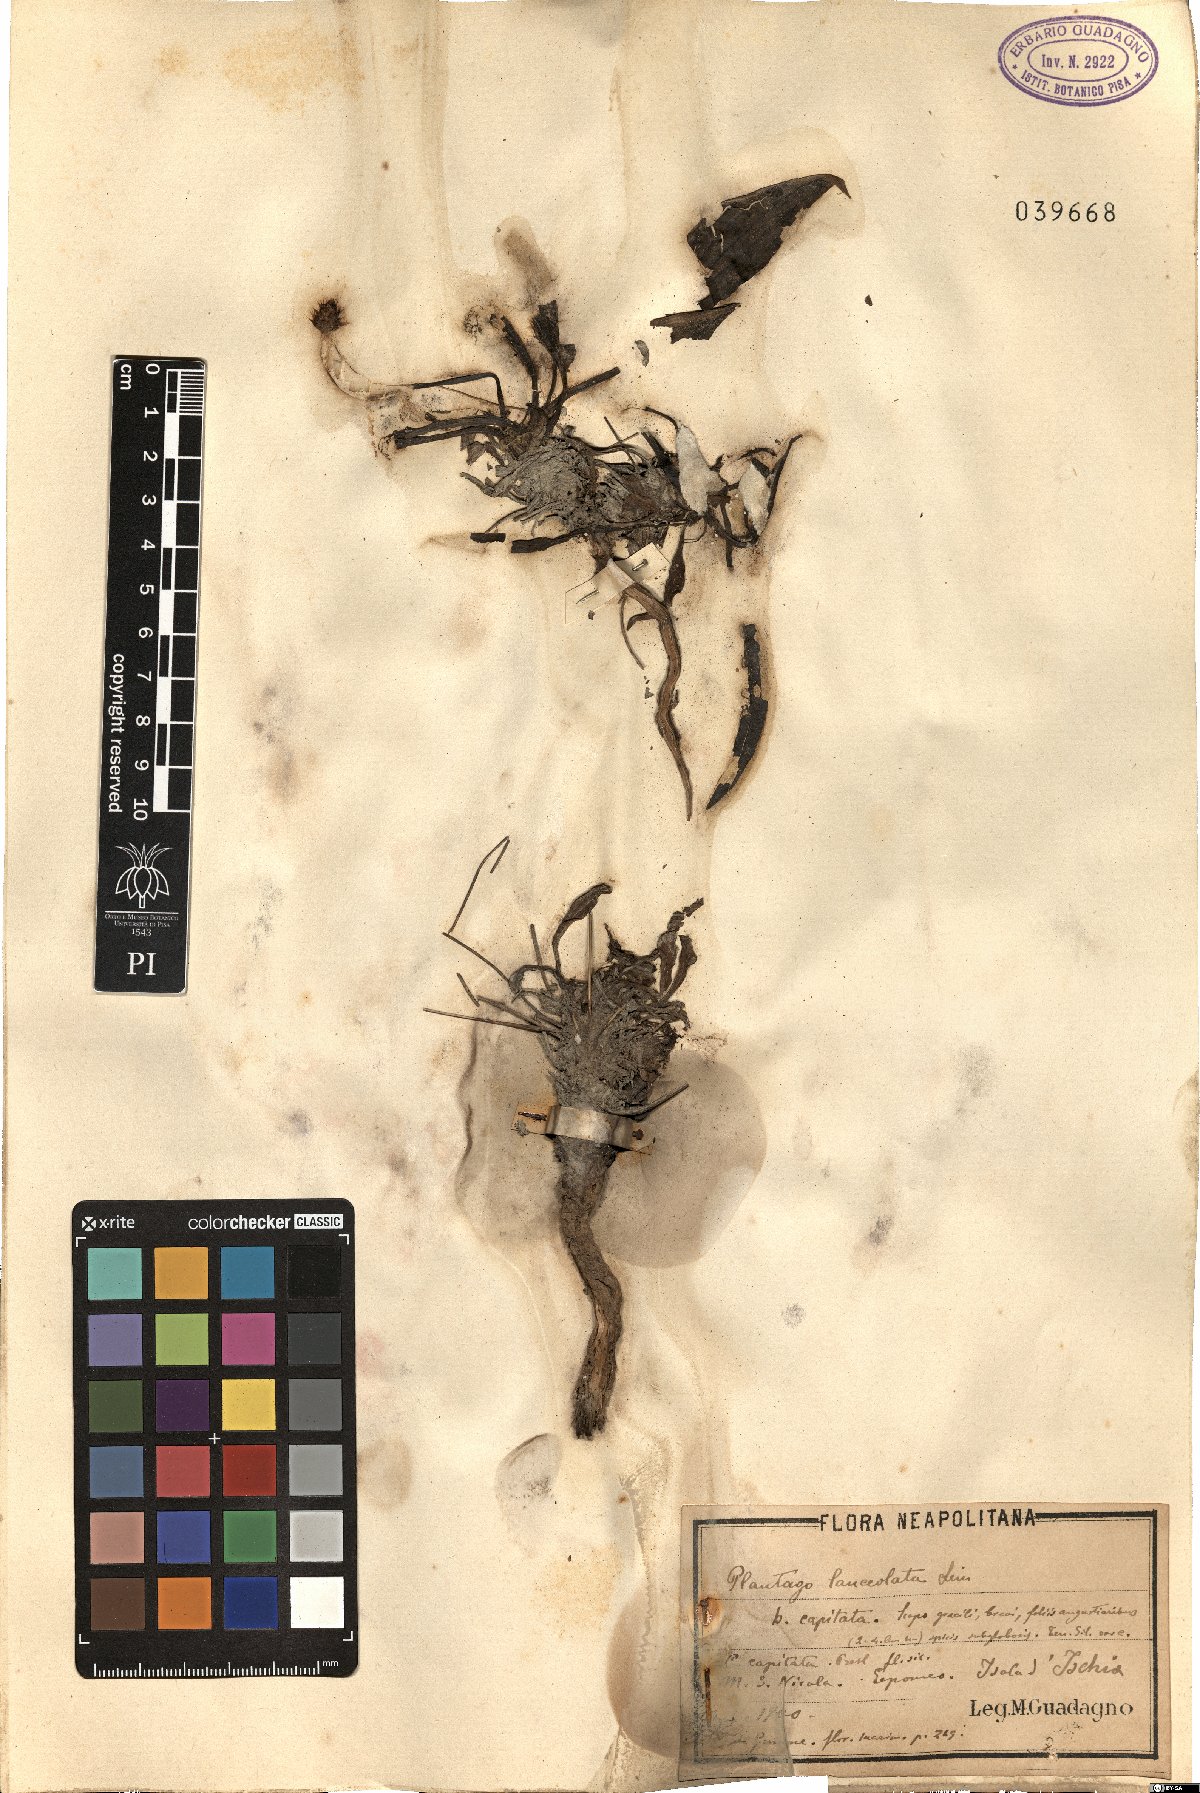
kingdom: Plantae
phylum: Tracheophyta
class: Magnoliopsida
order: Lamiales
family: Plantaginaceae
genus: Plantago
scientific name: Plantago lanceolata
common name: Ribwort plantain
